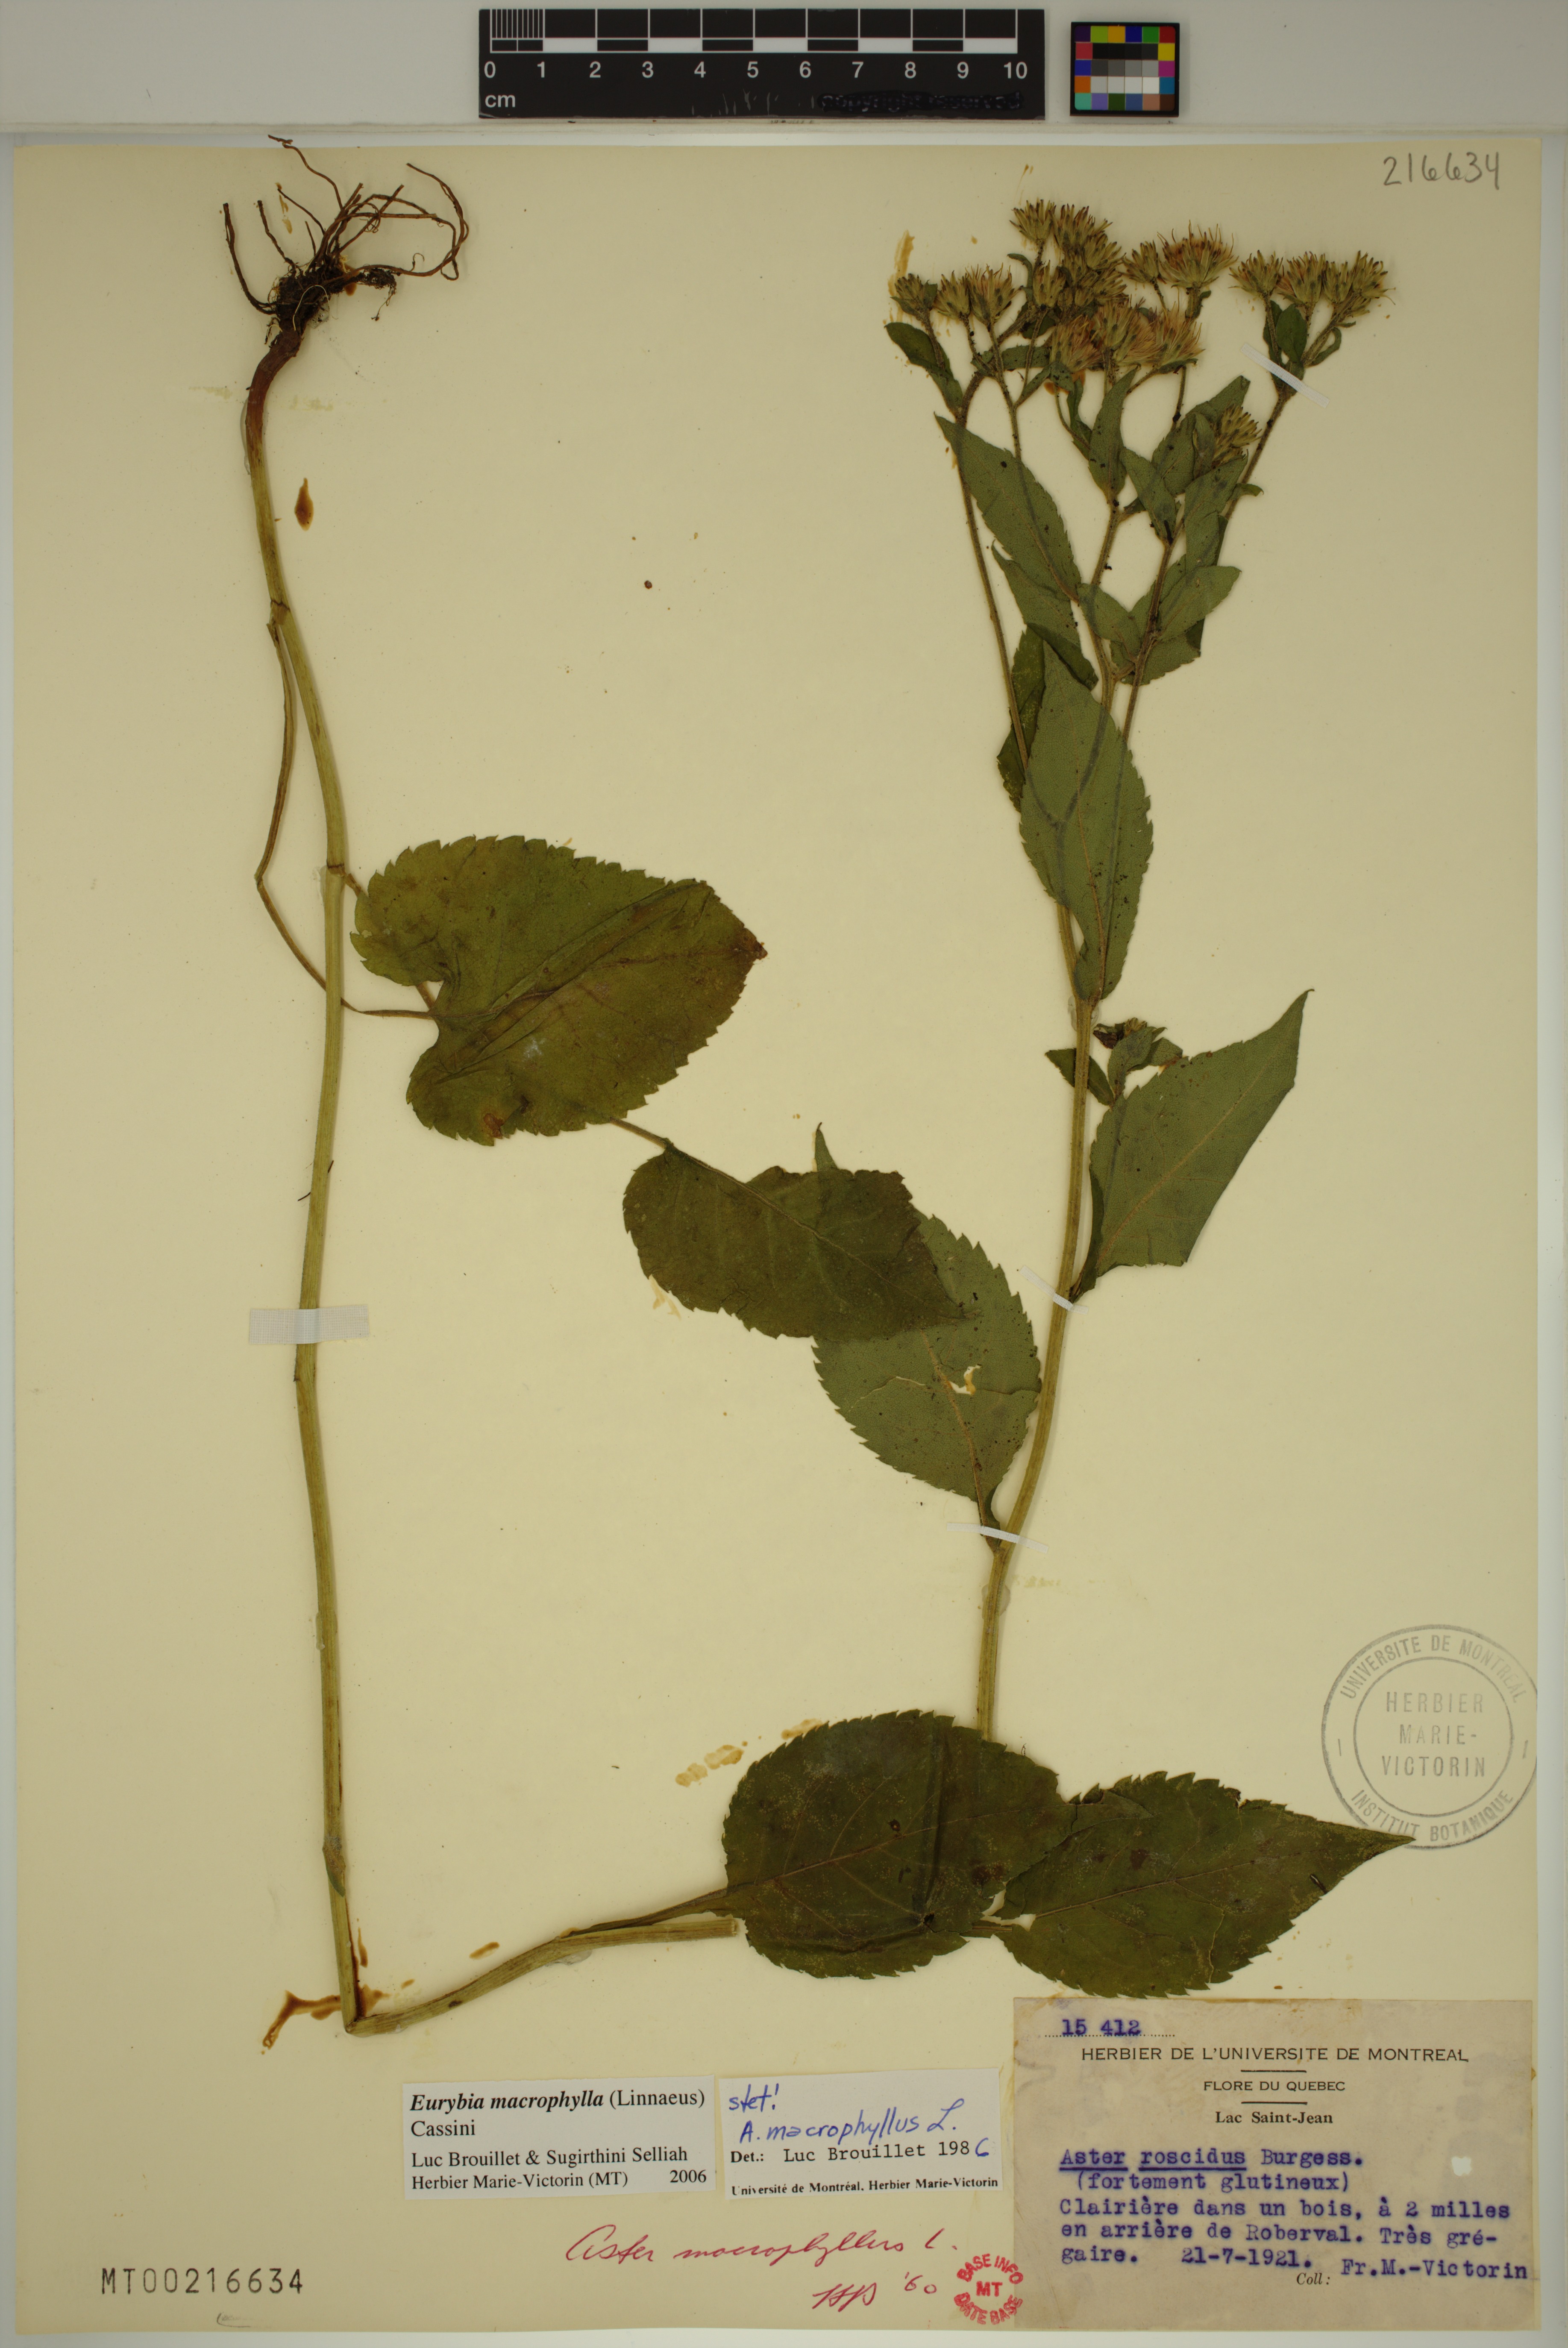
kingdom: Plantae
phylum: Tracheophyta
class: Magnoliopsida
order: Asterales
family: Asteraceae
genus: Eurybia
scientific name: Eurybia macrophylla
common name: Big-leaved aster
